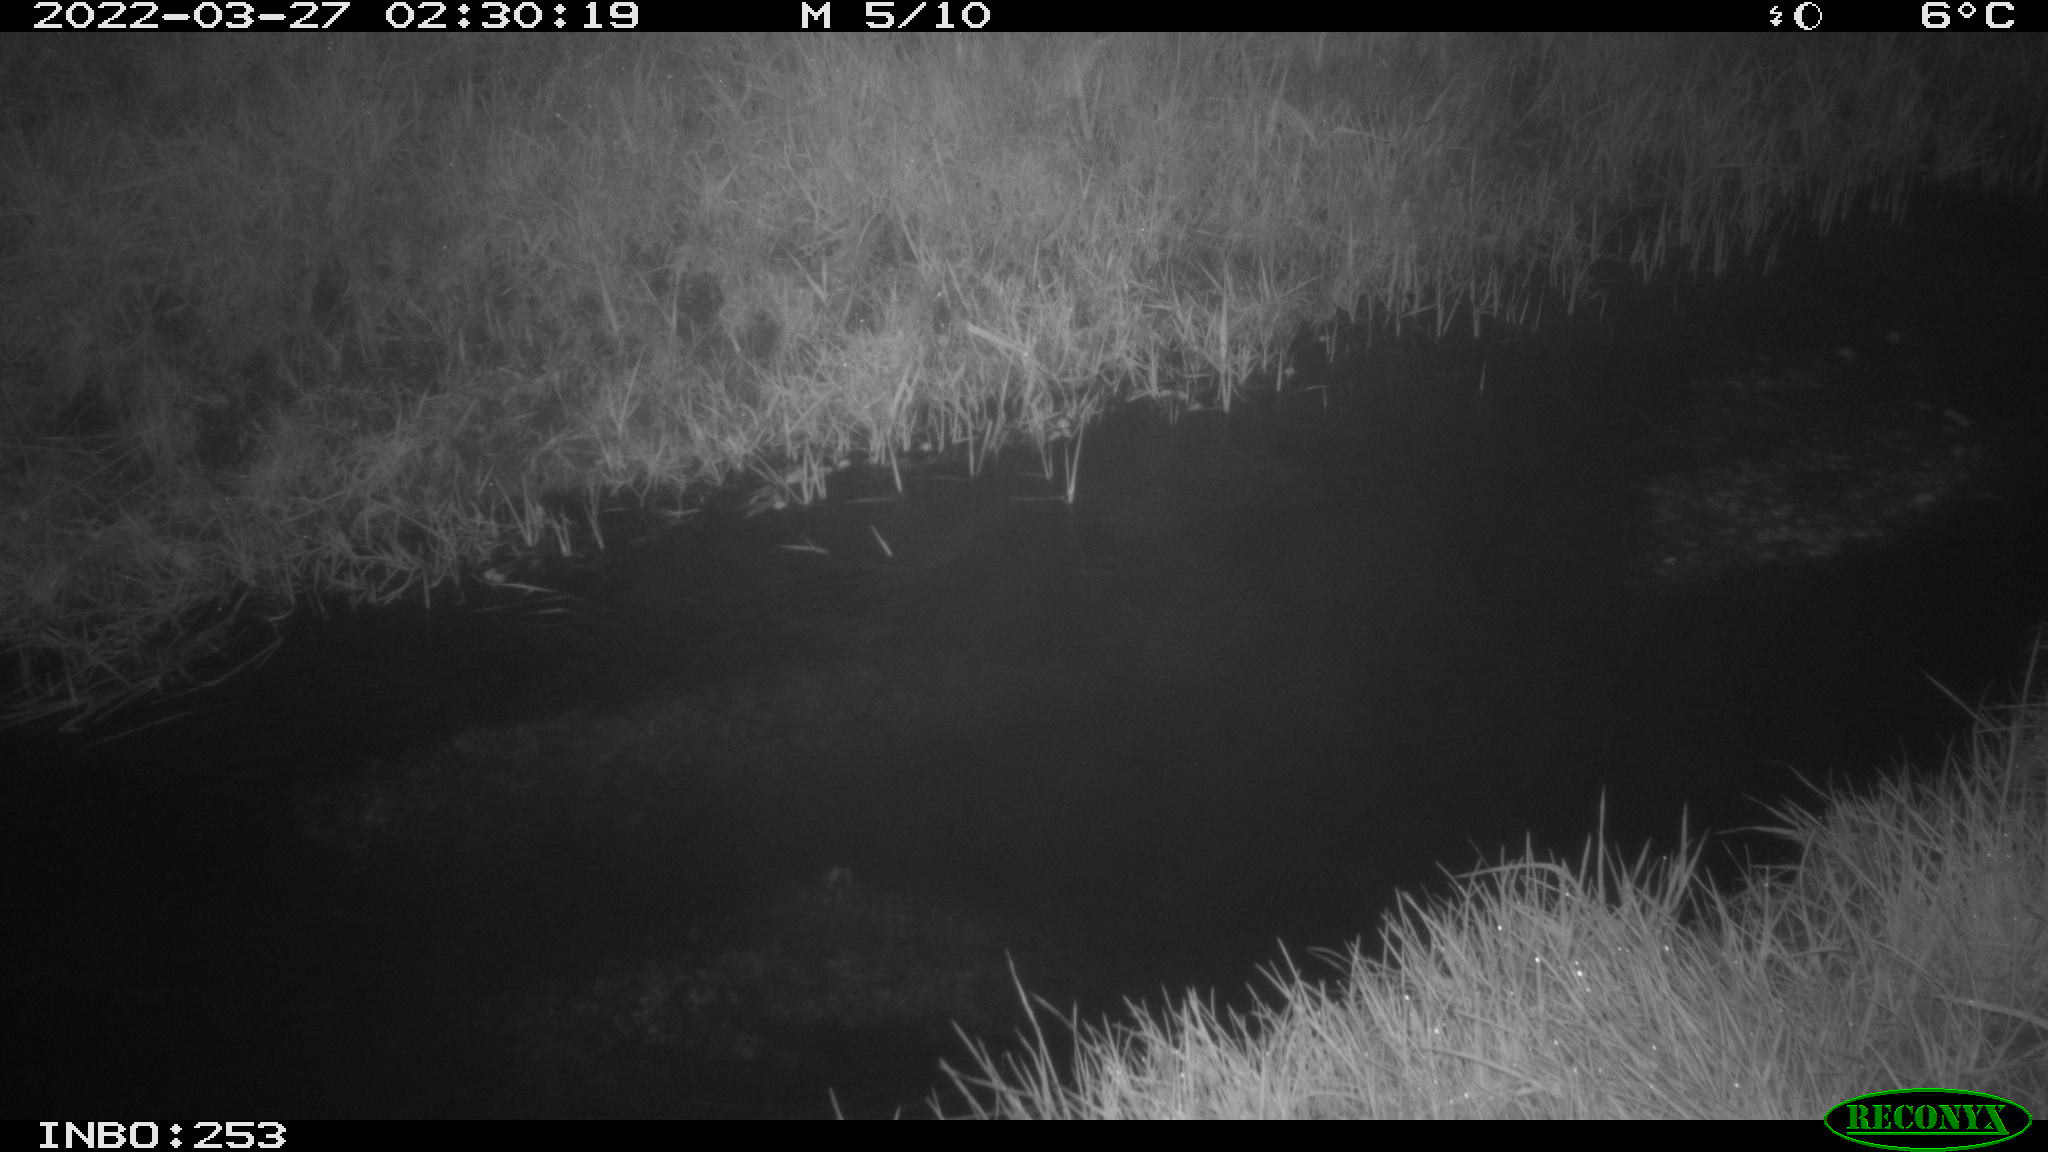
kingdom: Animalia
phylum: Chordata
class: Aves
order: Anseriformes
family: Anatidae
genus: Anas
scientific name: Anas platyrhynchos
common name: Mallard
